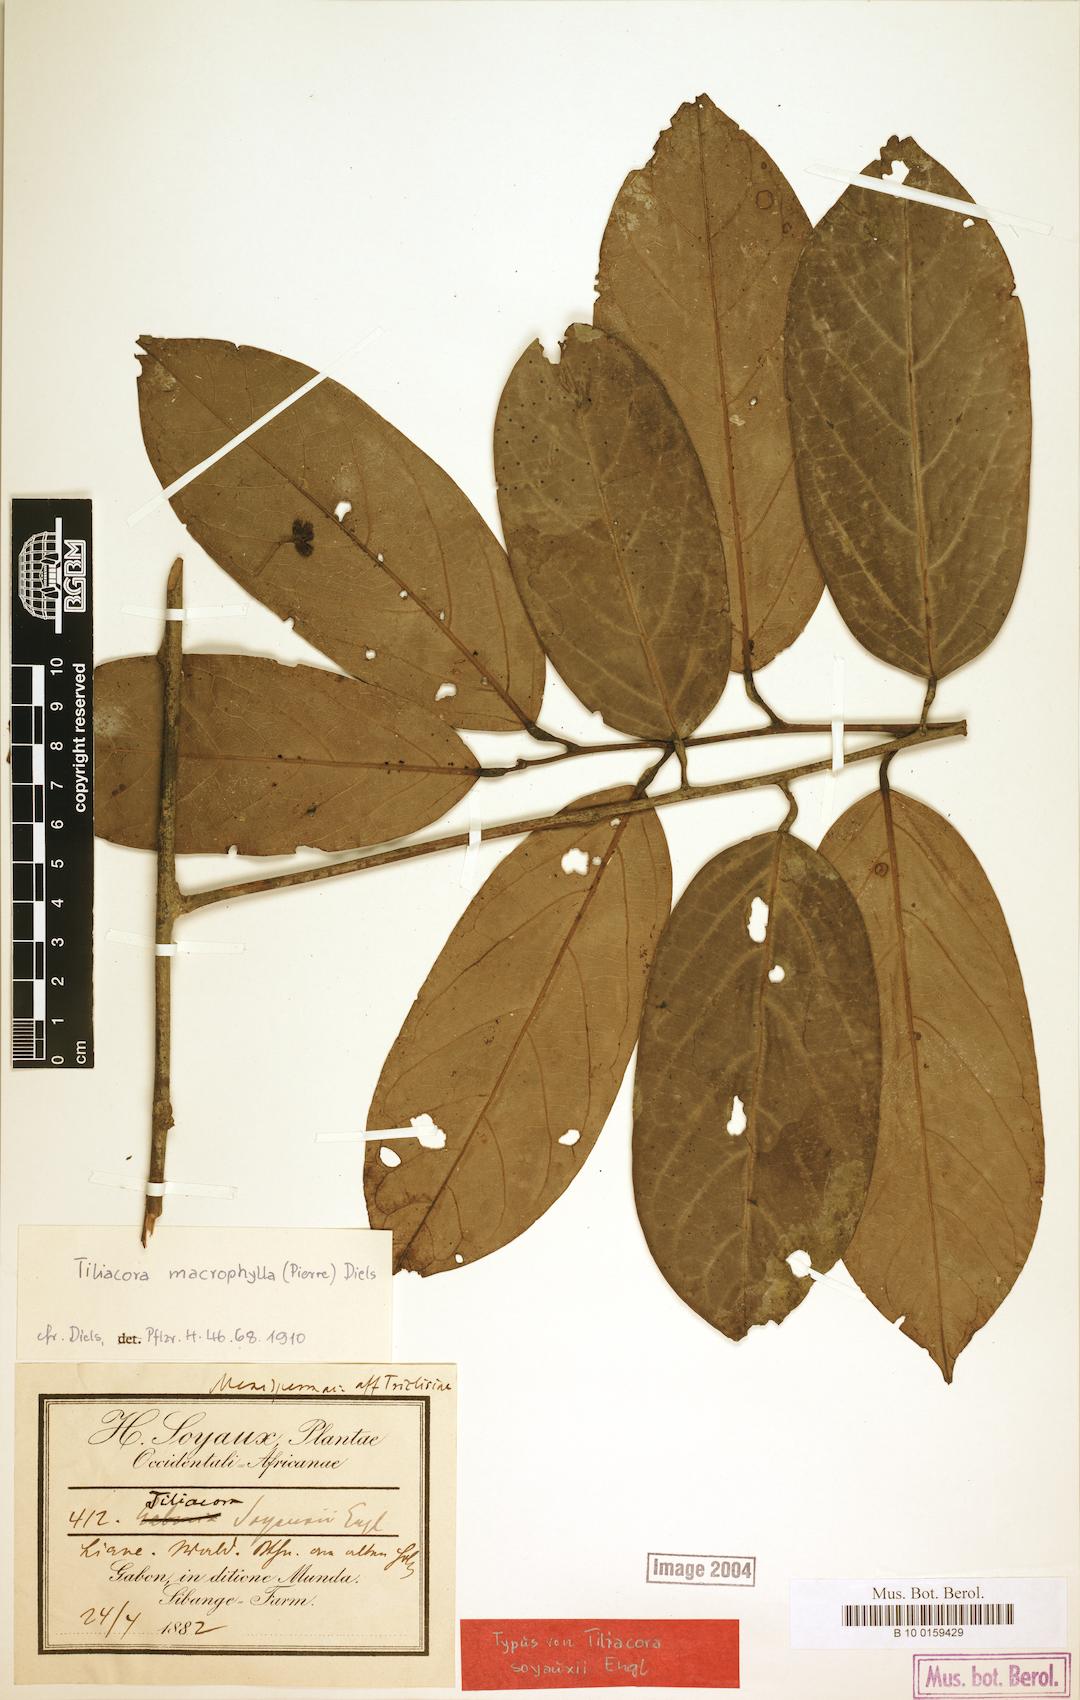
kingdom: Plantae
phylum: Tracheophyta
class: Magnoliopsida
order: Ranunculales
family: Menispermaceae
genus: Tiliacora
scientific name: Tiliacora macrophylla
